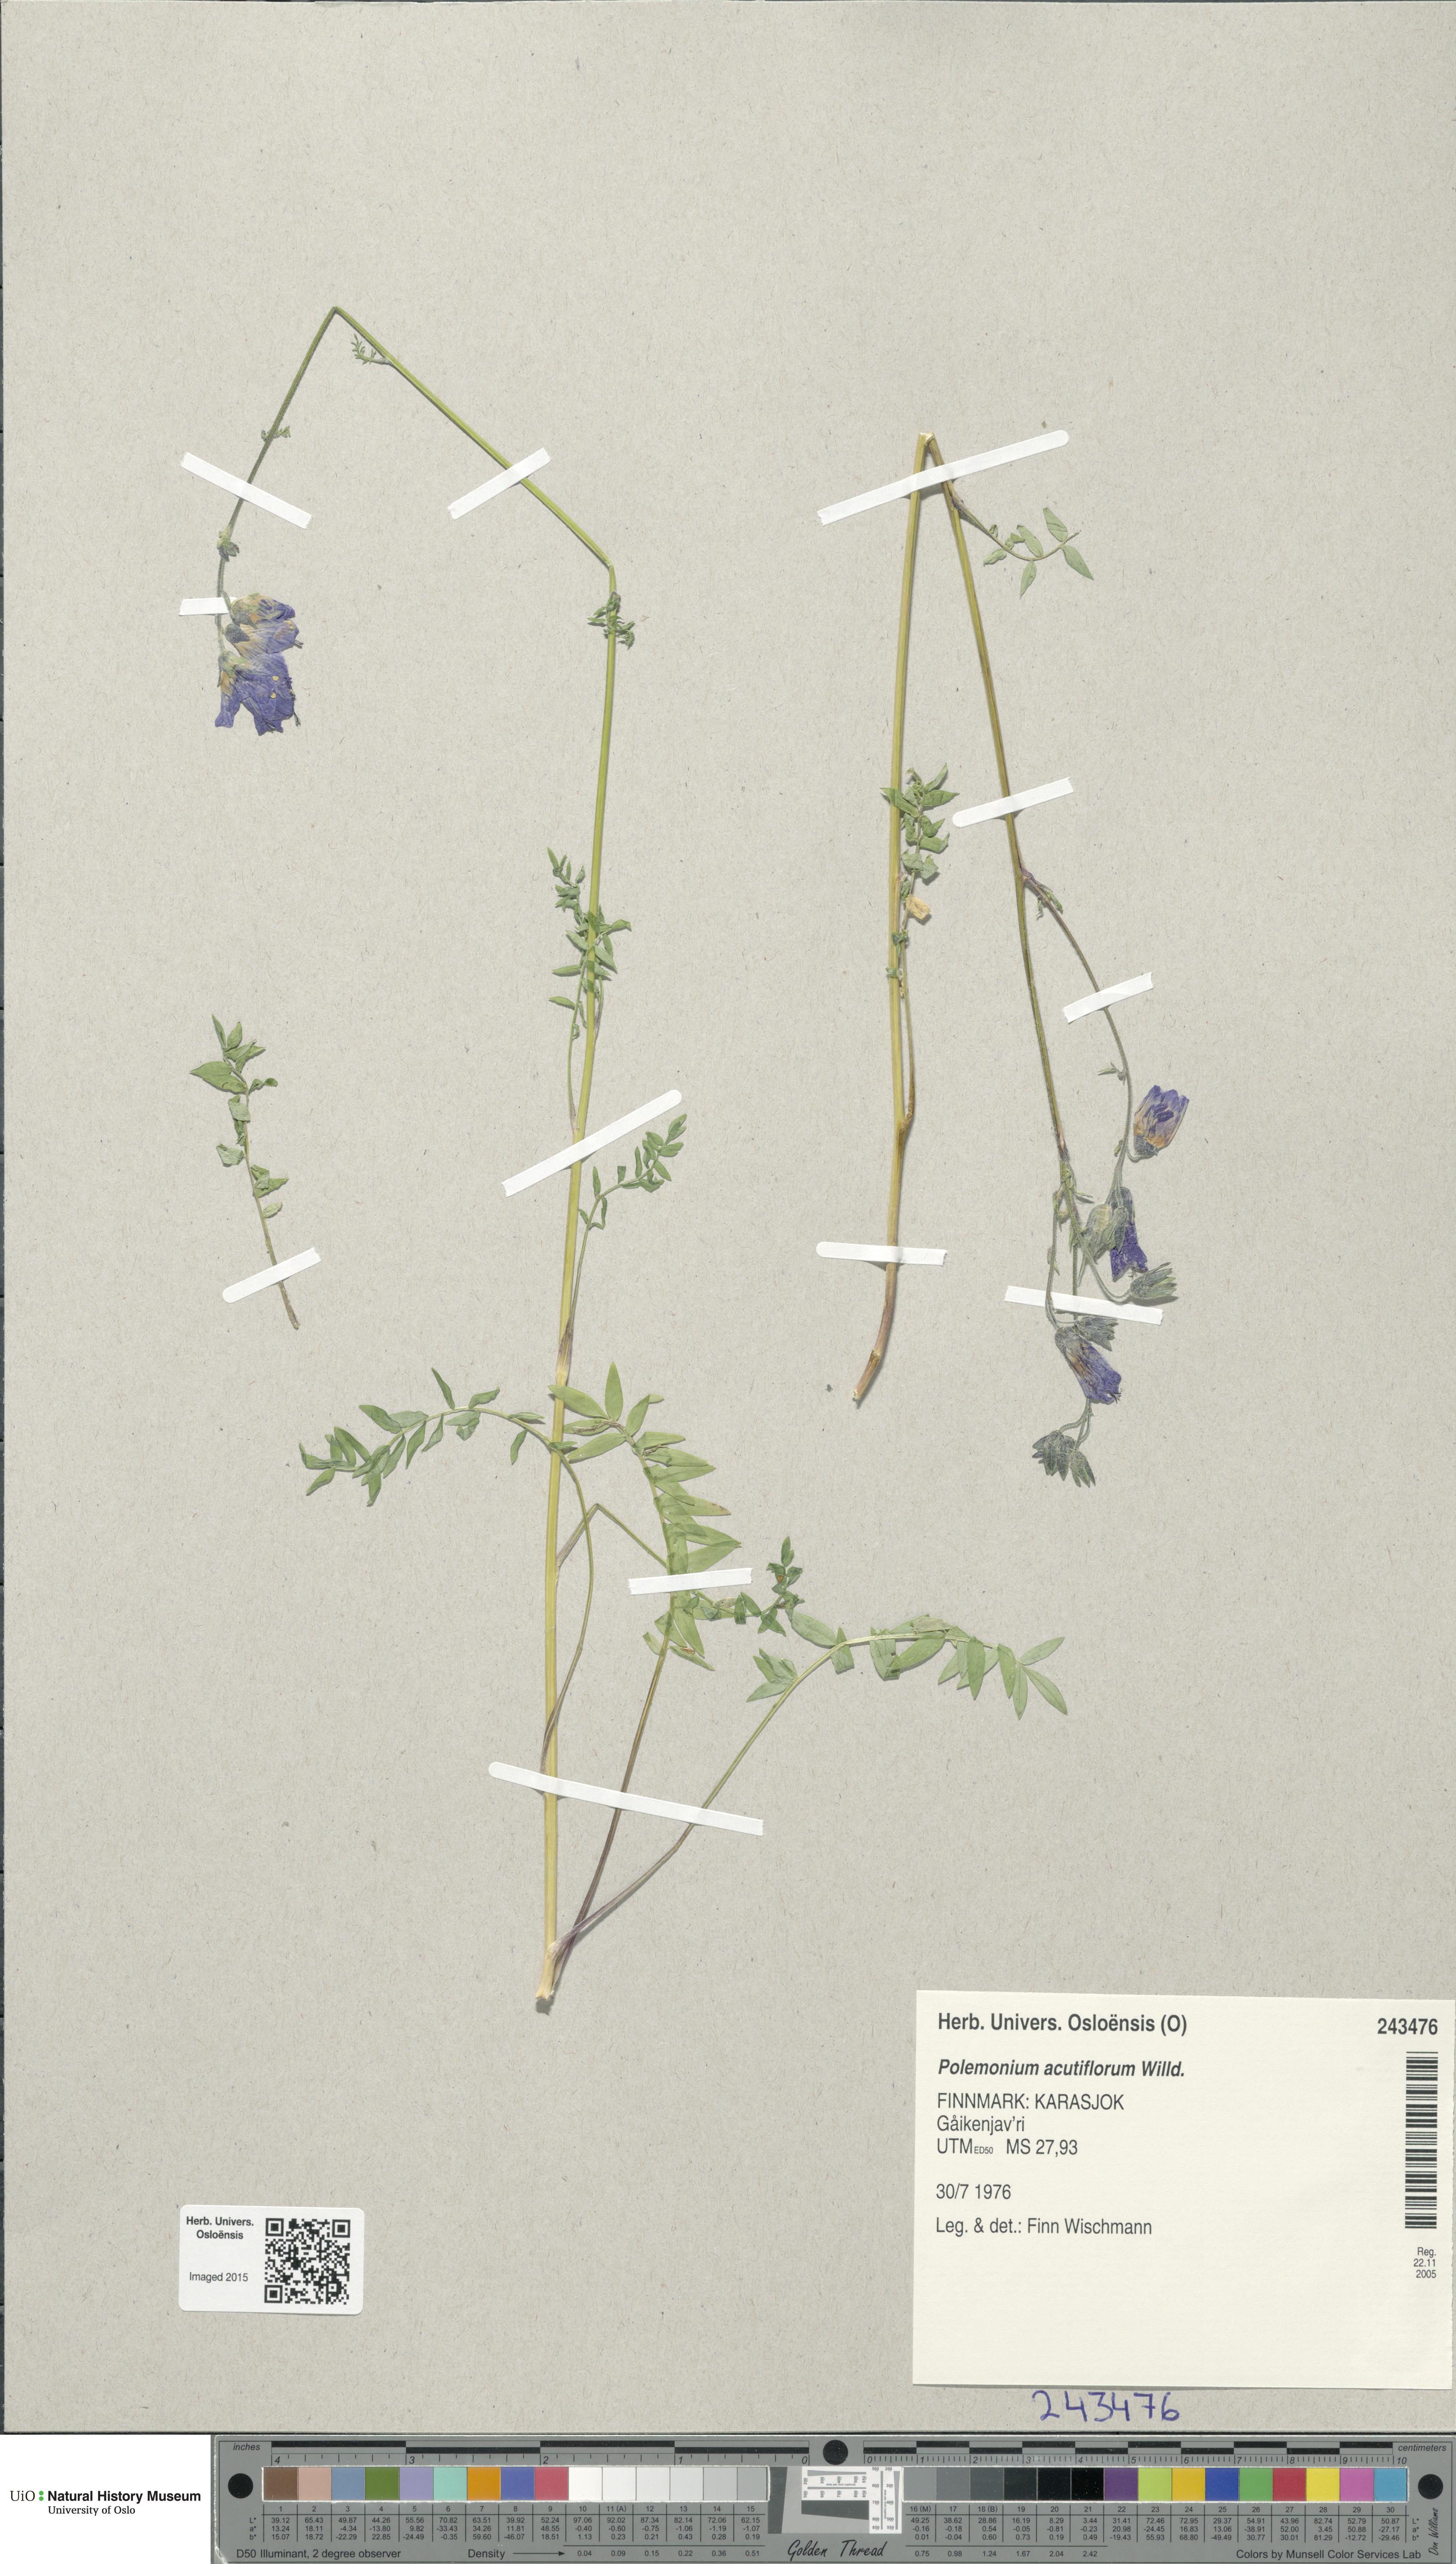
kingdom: Plantae
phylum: Tracheophyta
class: Magnoliopsida
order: Ericales
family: Polemoniaceae
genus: Polemonium
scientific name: Polemonium villosum
